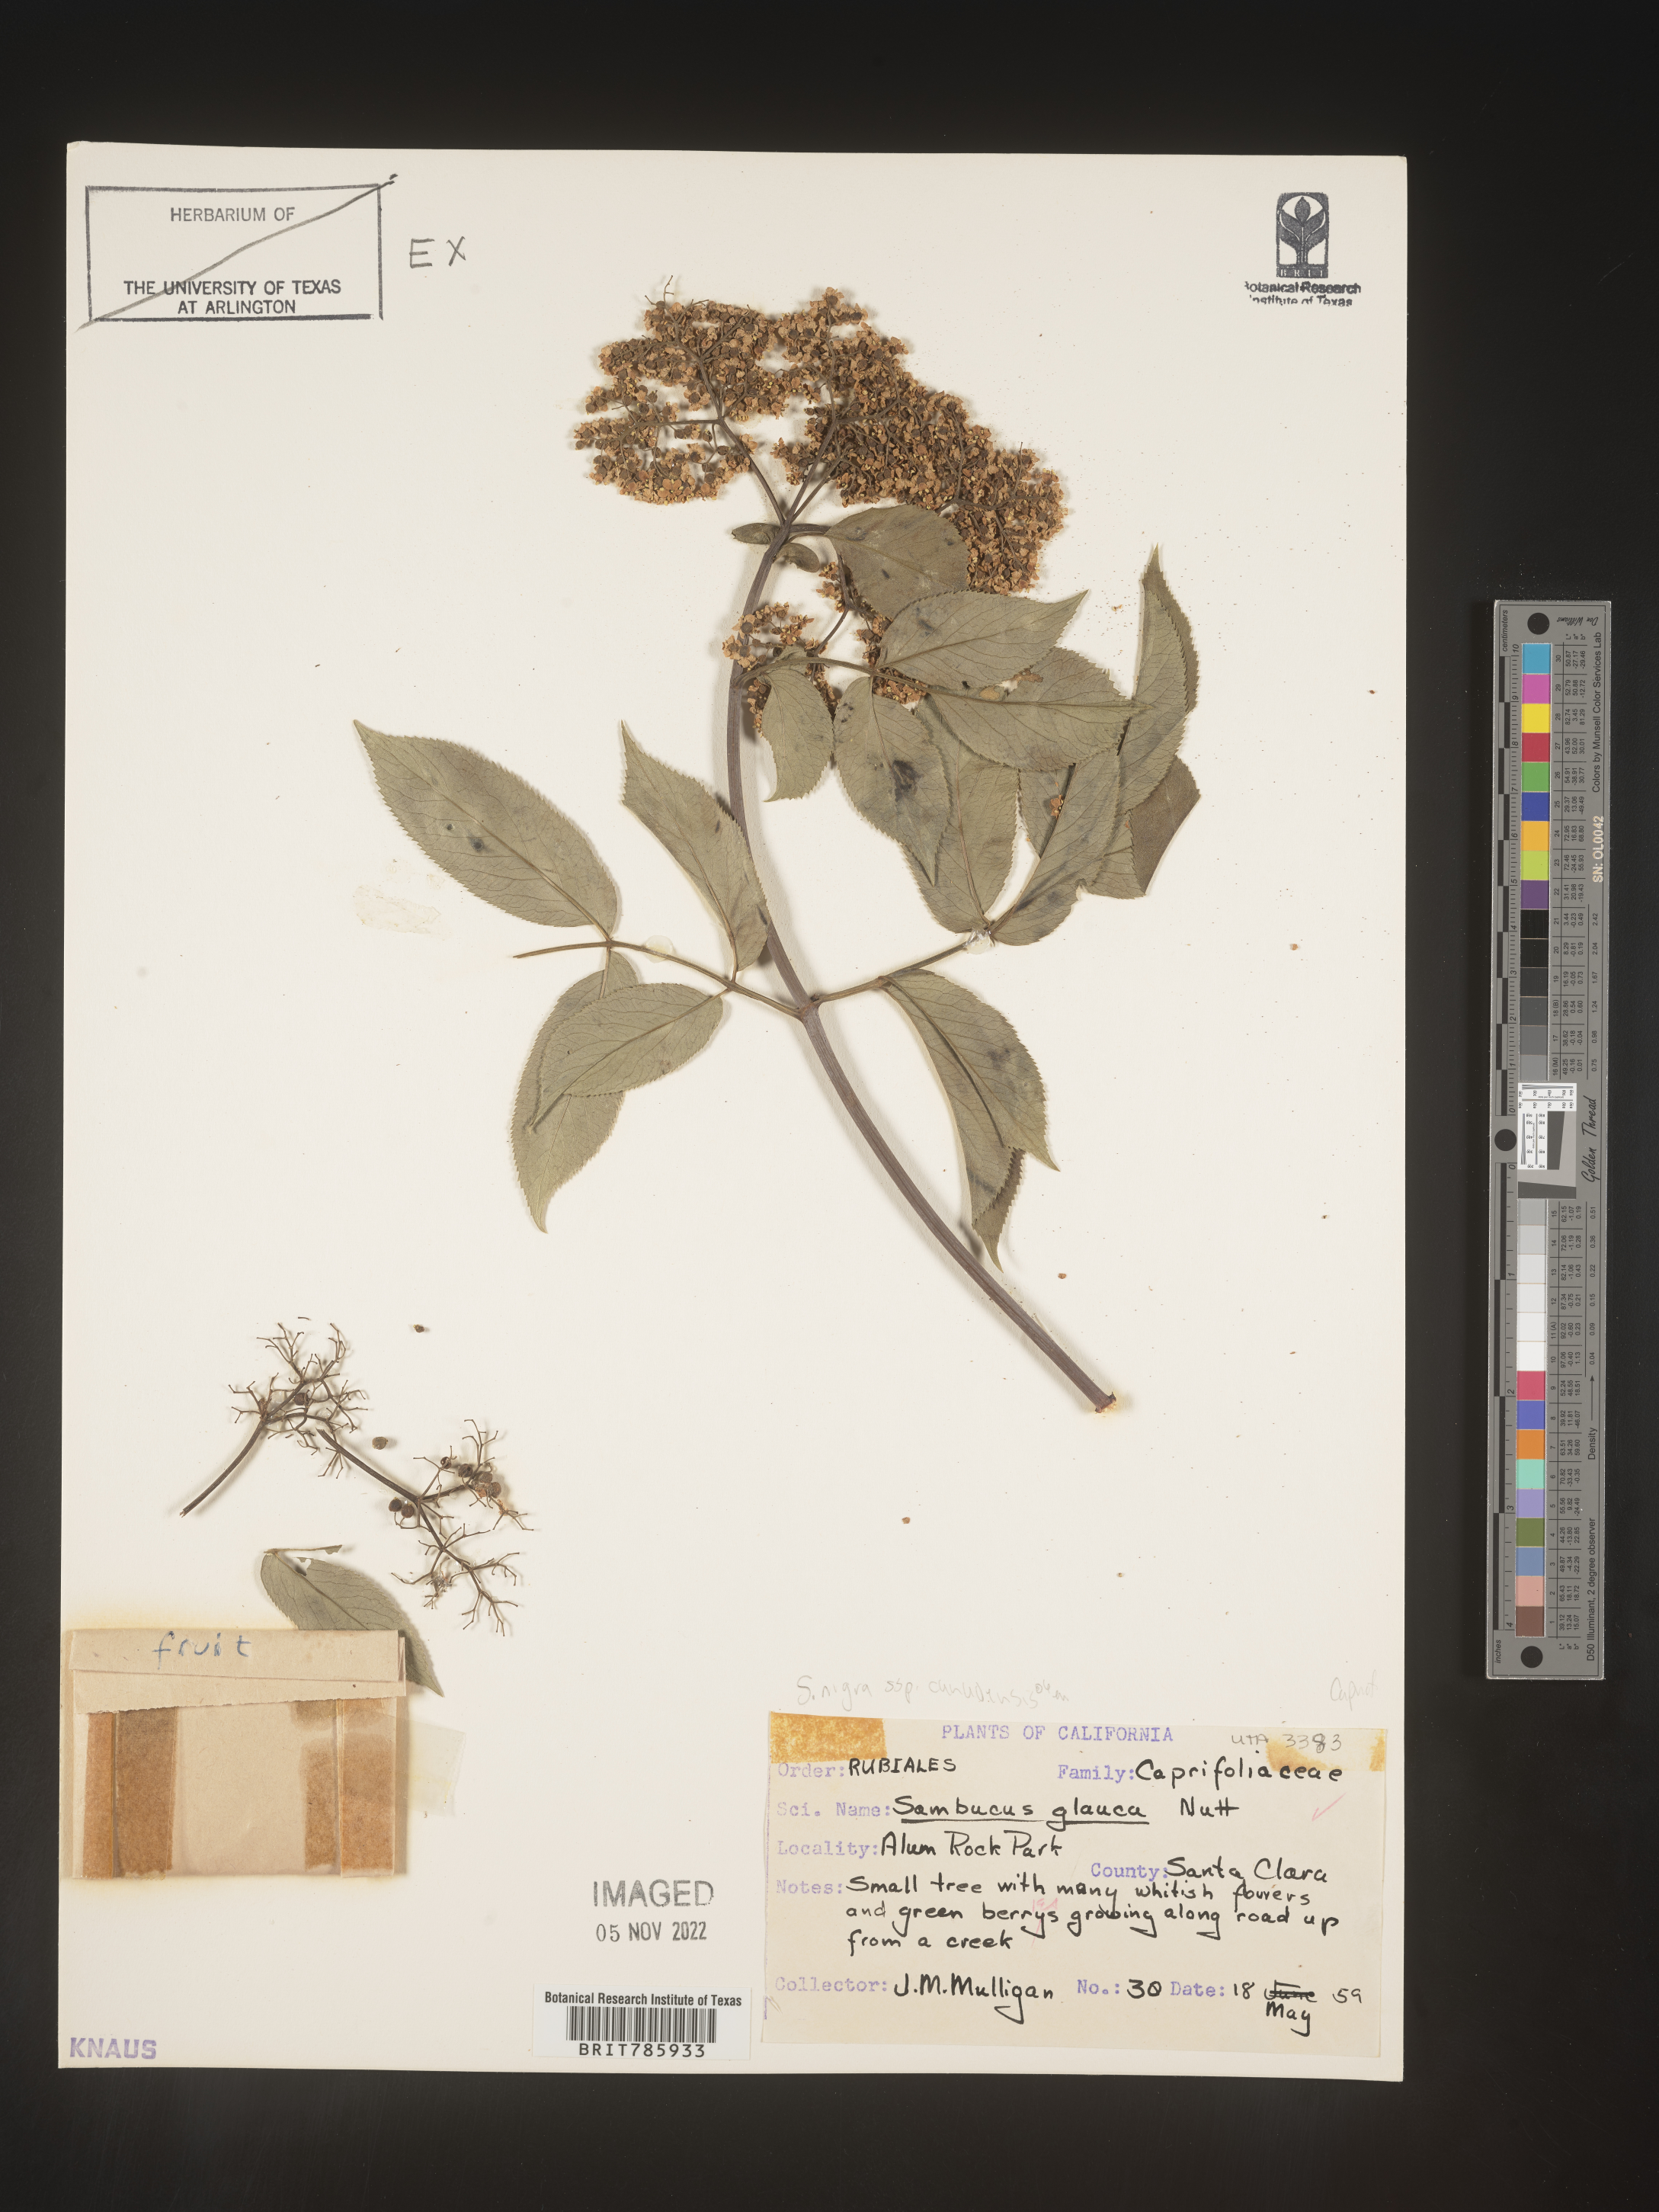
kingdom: Plantae
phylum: Tracheophyta
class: Magnoliopsida
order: Dipsacales
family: Viburnaceae
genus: Sambucus
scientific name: Sambucus nigra
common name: Elder
